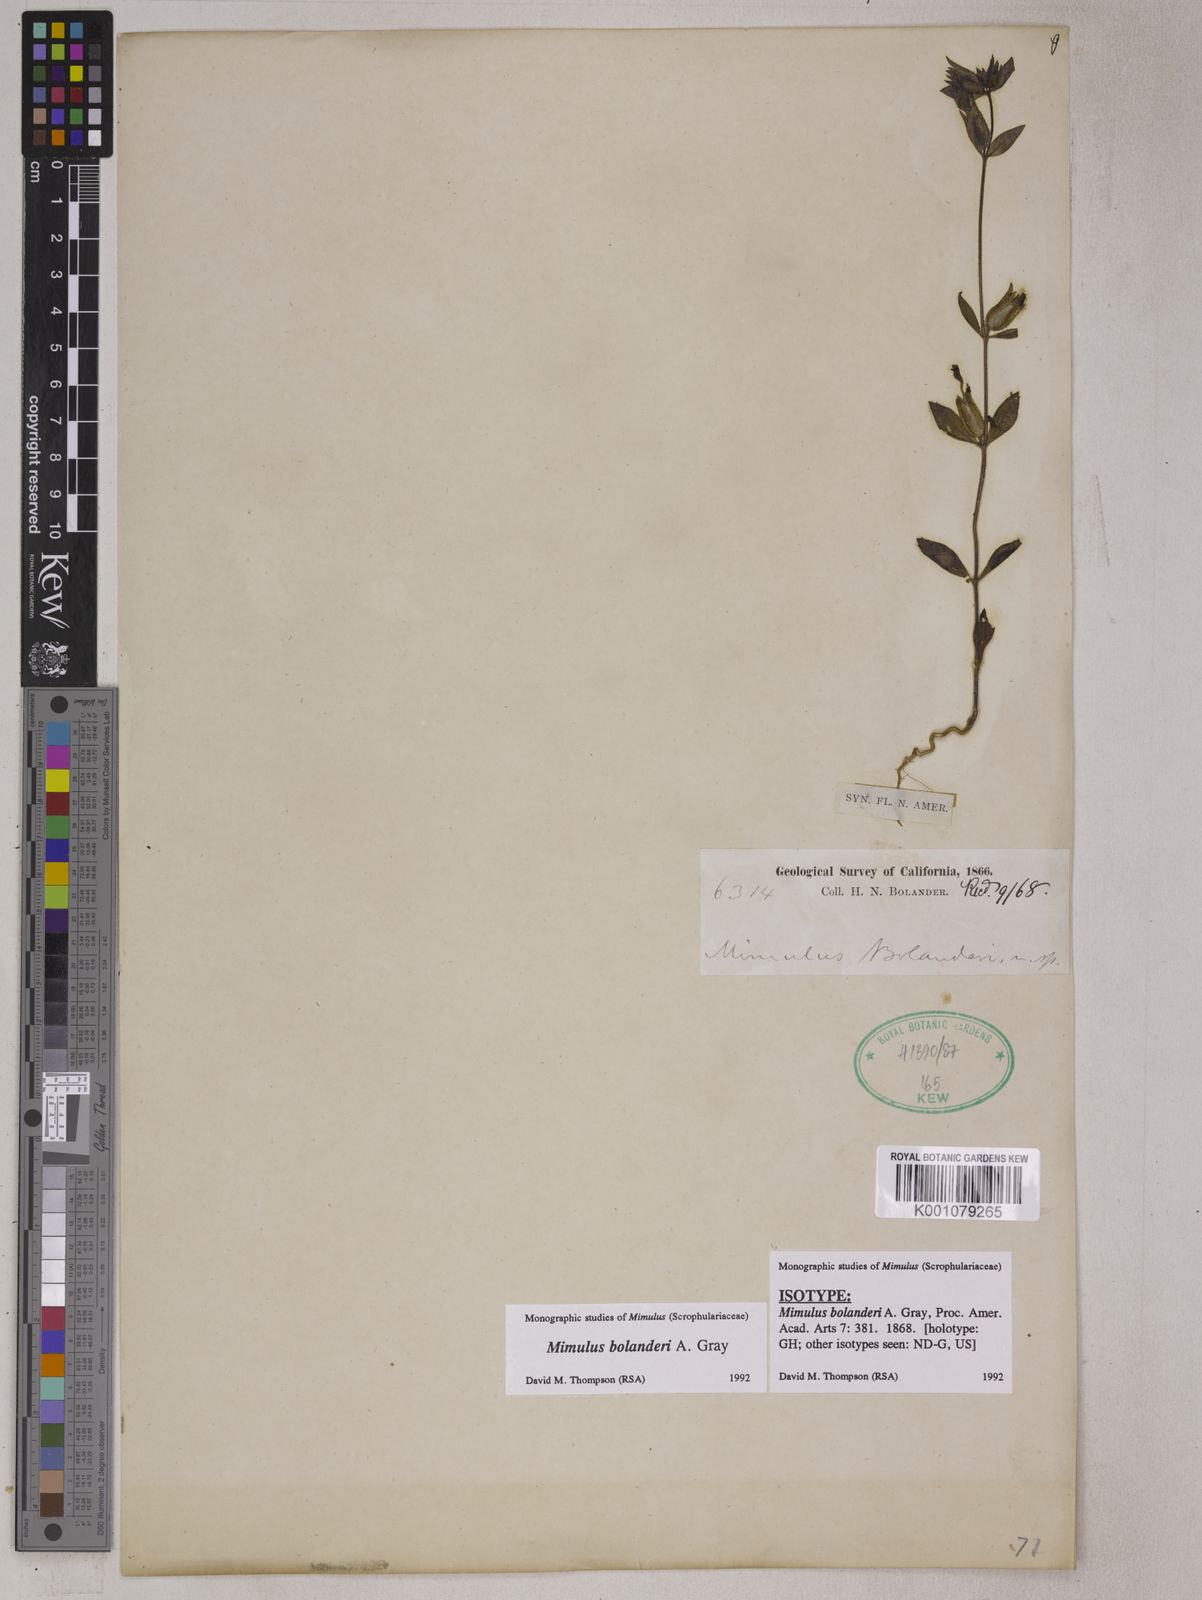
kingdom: Plantae
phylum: Tracheophyta
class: Magnoliopsida
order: Lamiales
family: Phrymaceae
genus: Diplacus
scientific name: Diplacus bolanderi
